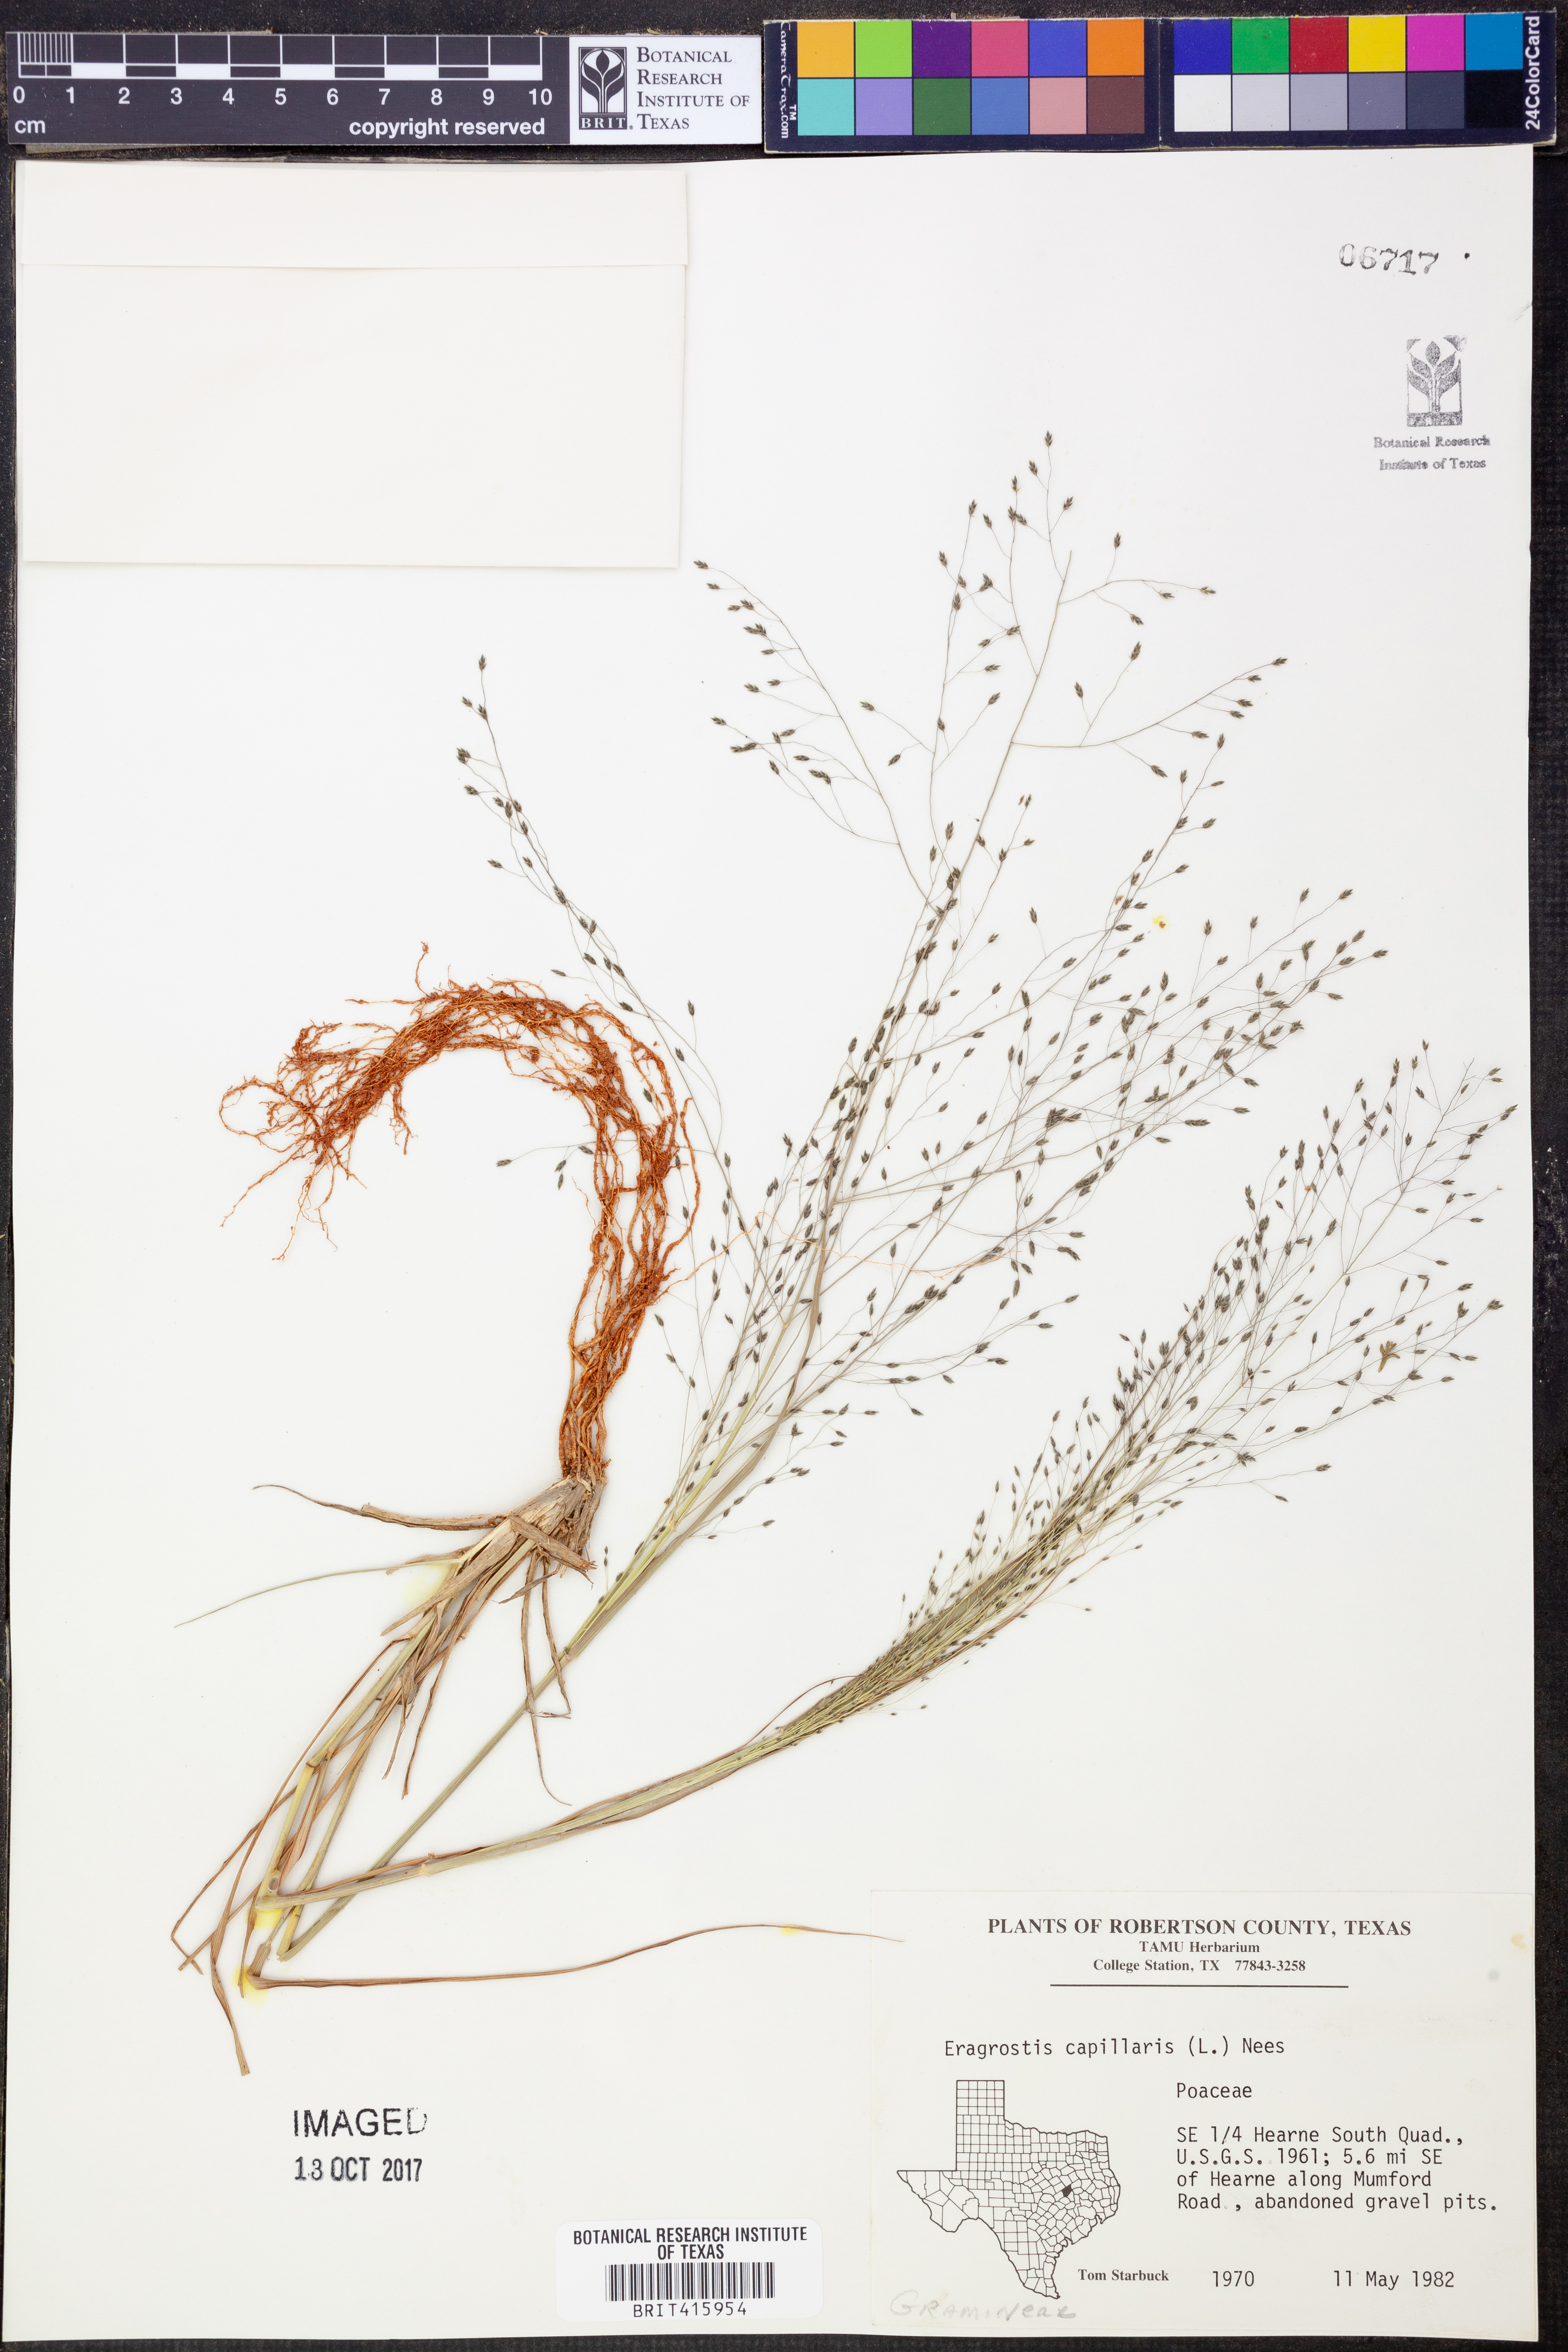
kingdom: Plantae
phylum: Tracheophyta
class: Liliopsida
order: Poales
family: Poaceae
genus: Eragrostis
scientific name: Eragrostis capillaris
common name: Hair-like lovegrass
